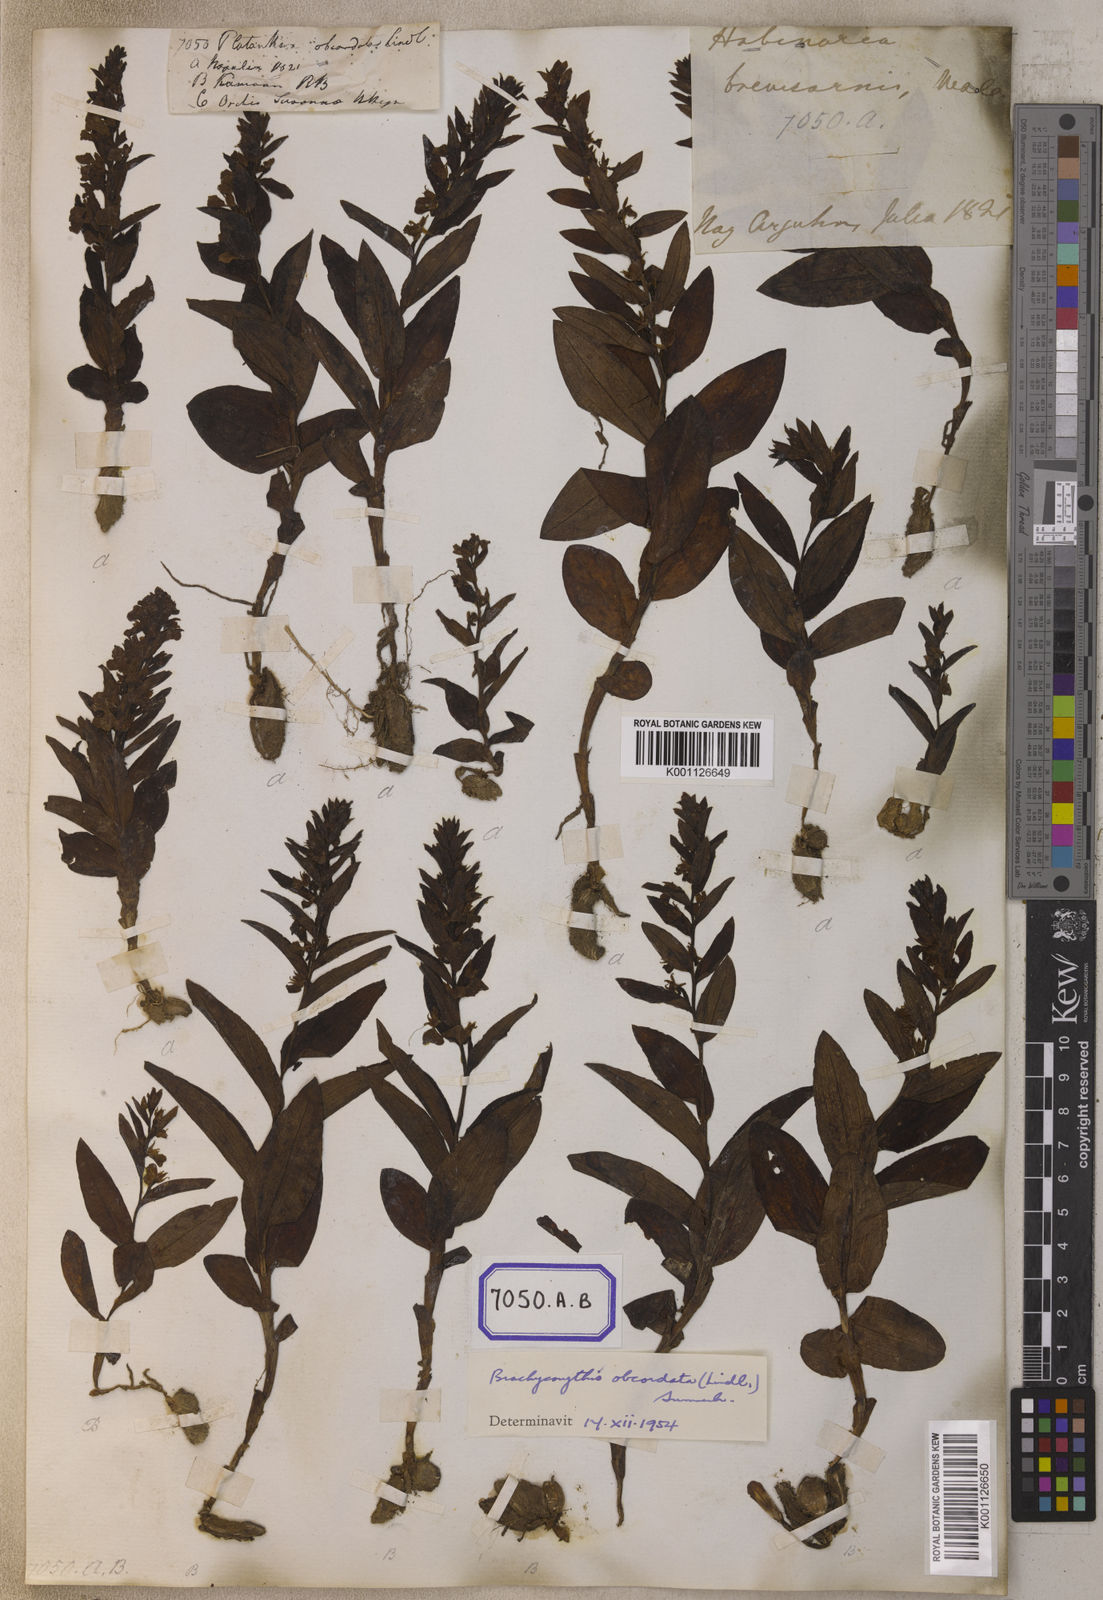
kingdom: Plantae
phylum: Tracheophyta
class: Liliopsida
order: Asparagales
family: Orchidaceae
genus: Platanthera
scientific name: Platanthera
